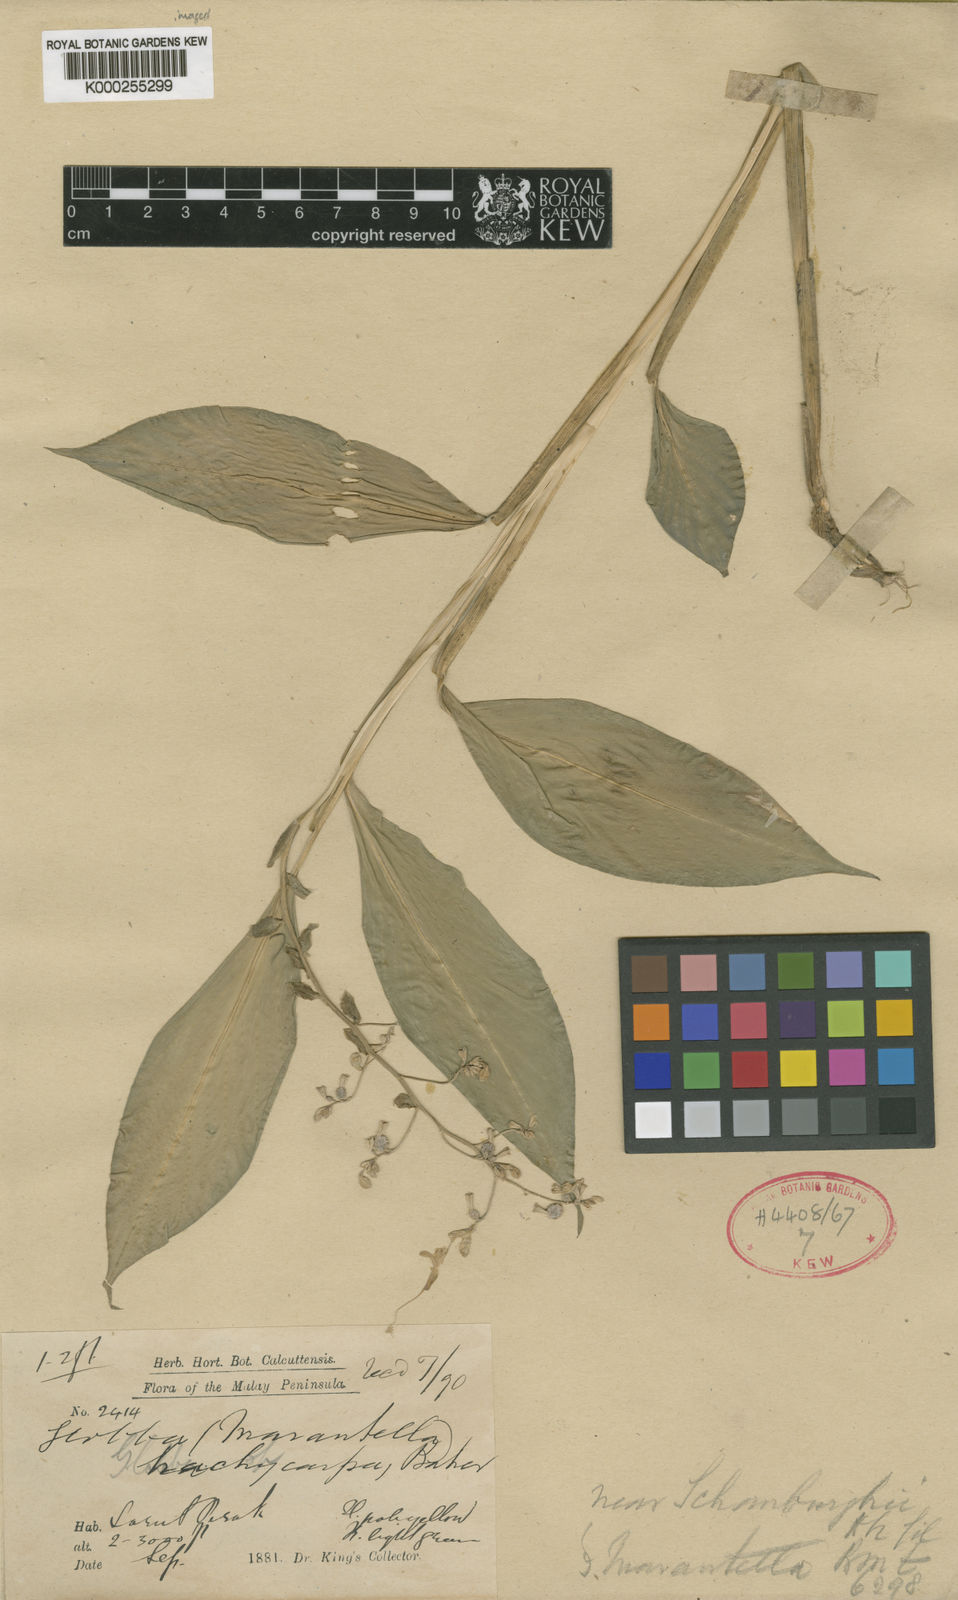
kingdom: Plantae
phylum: Tracheophyta
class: Liliopsida
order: Zingiberales
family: Zingiberaceae
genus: Globba
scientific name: Globba cernua
